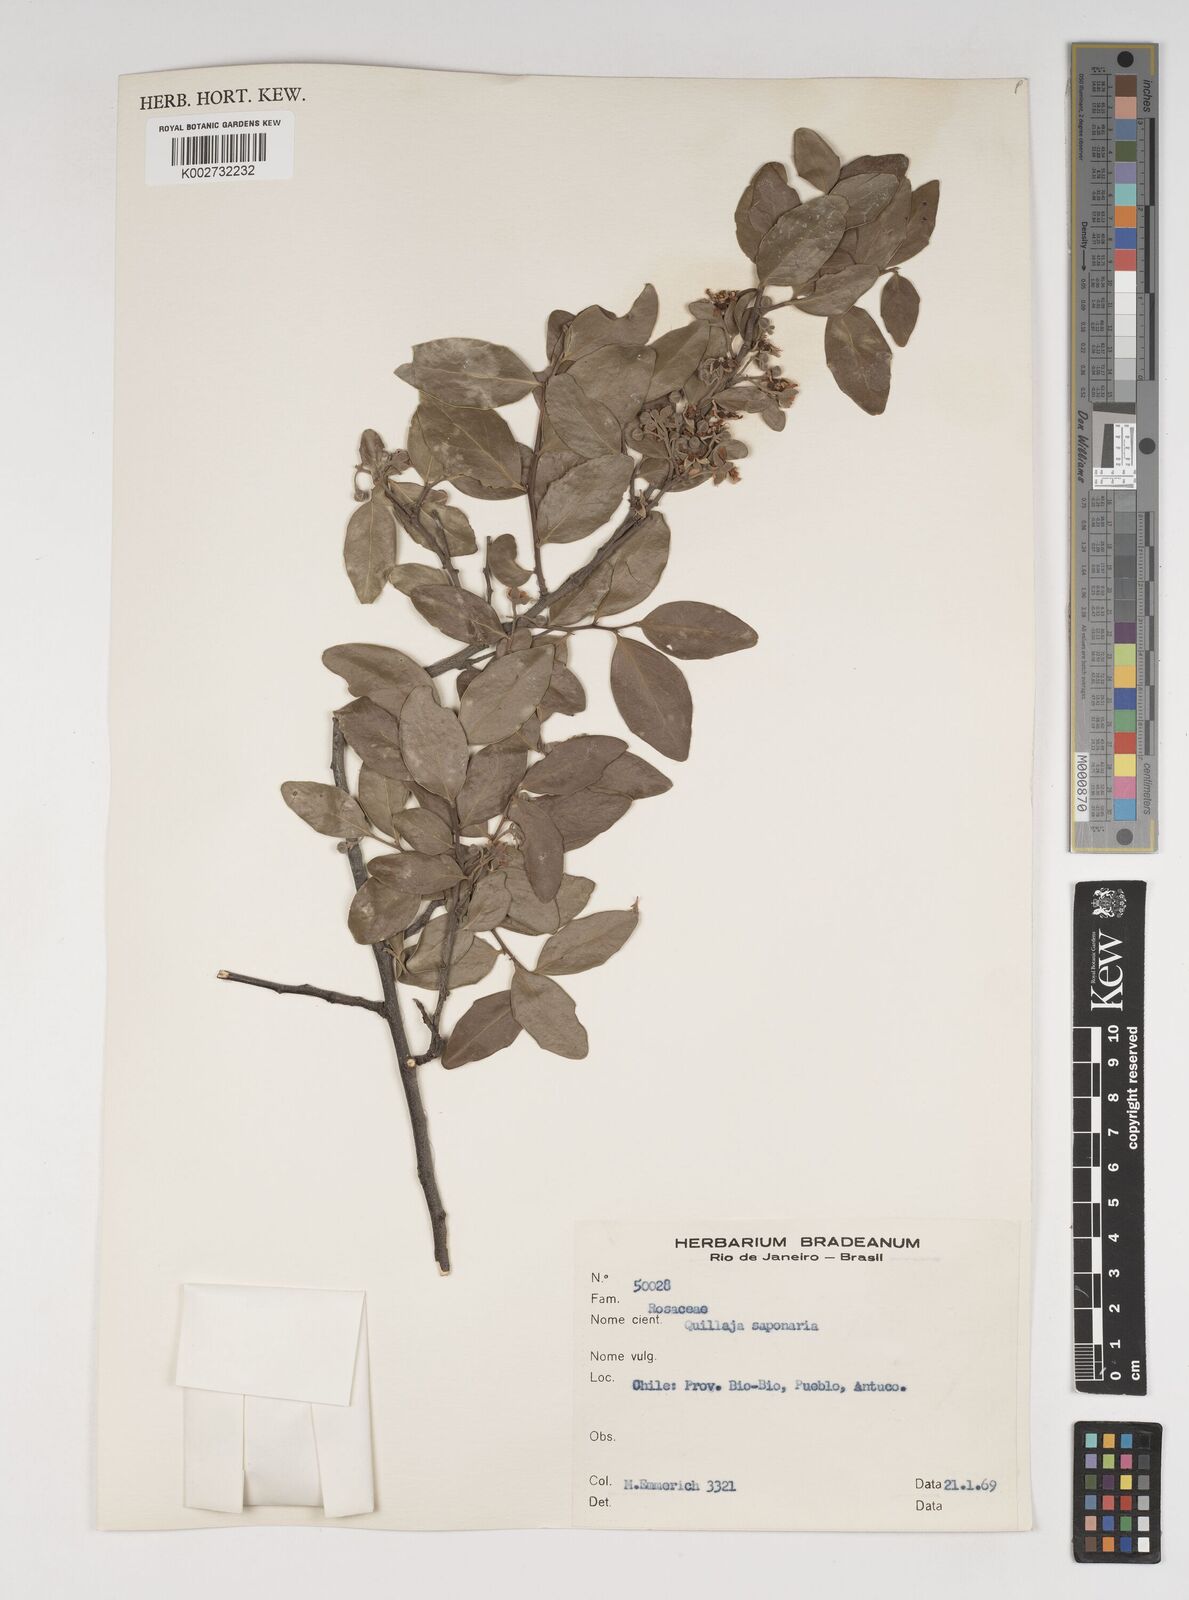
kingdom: Plantae
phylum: Tracheophyta
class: Magnoliopsida
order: Fabales
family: Quillajaceae
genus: Quillaja
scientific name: Quillaja saponaria
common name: Murillo's-bark
